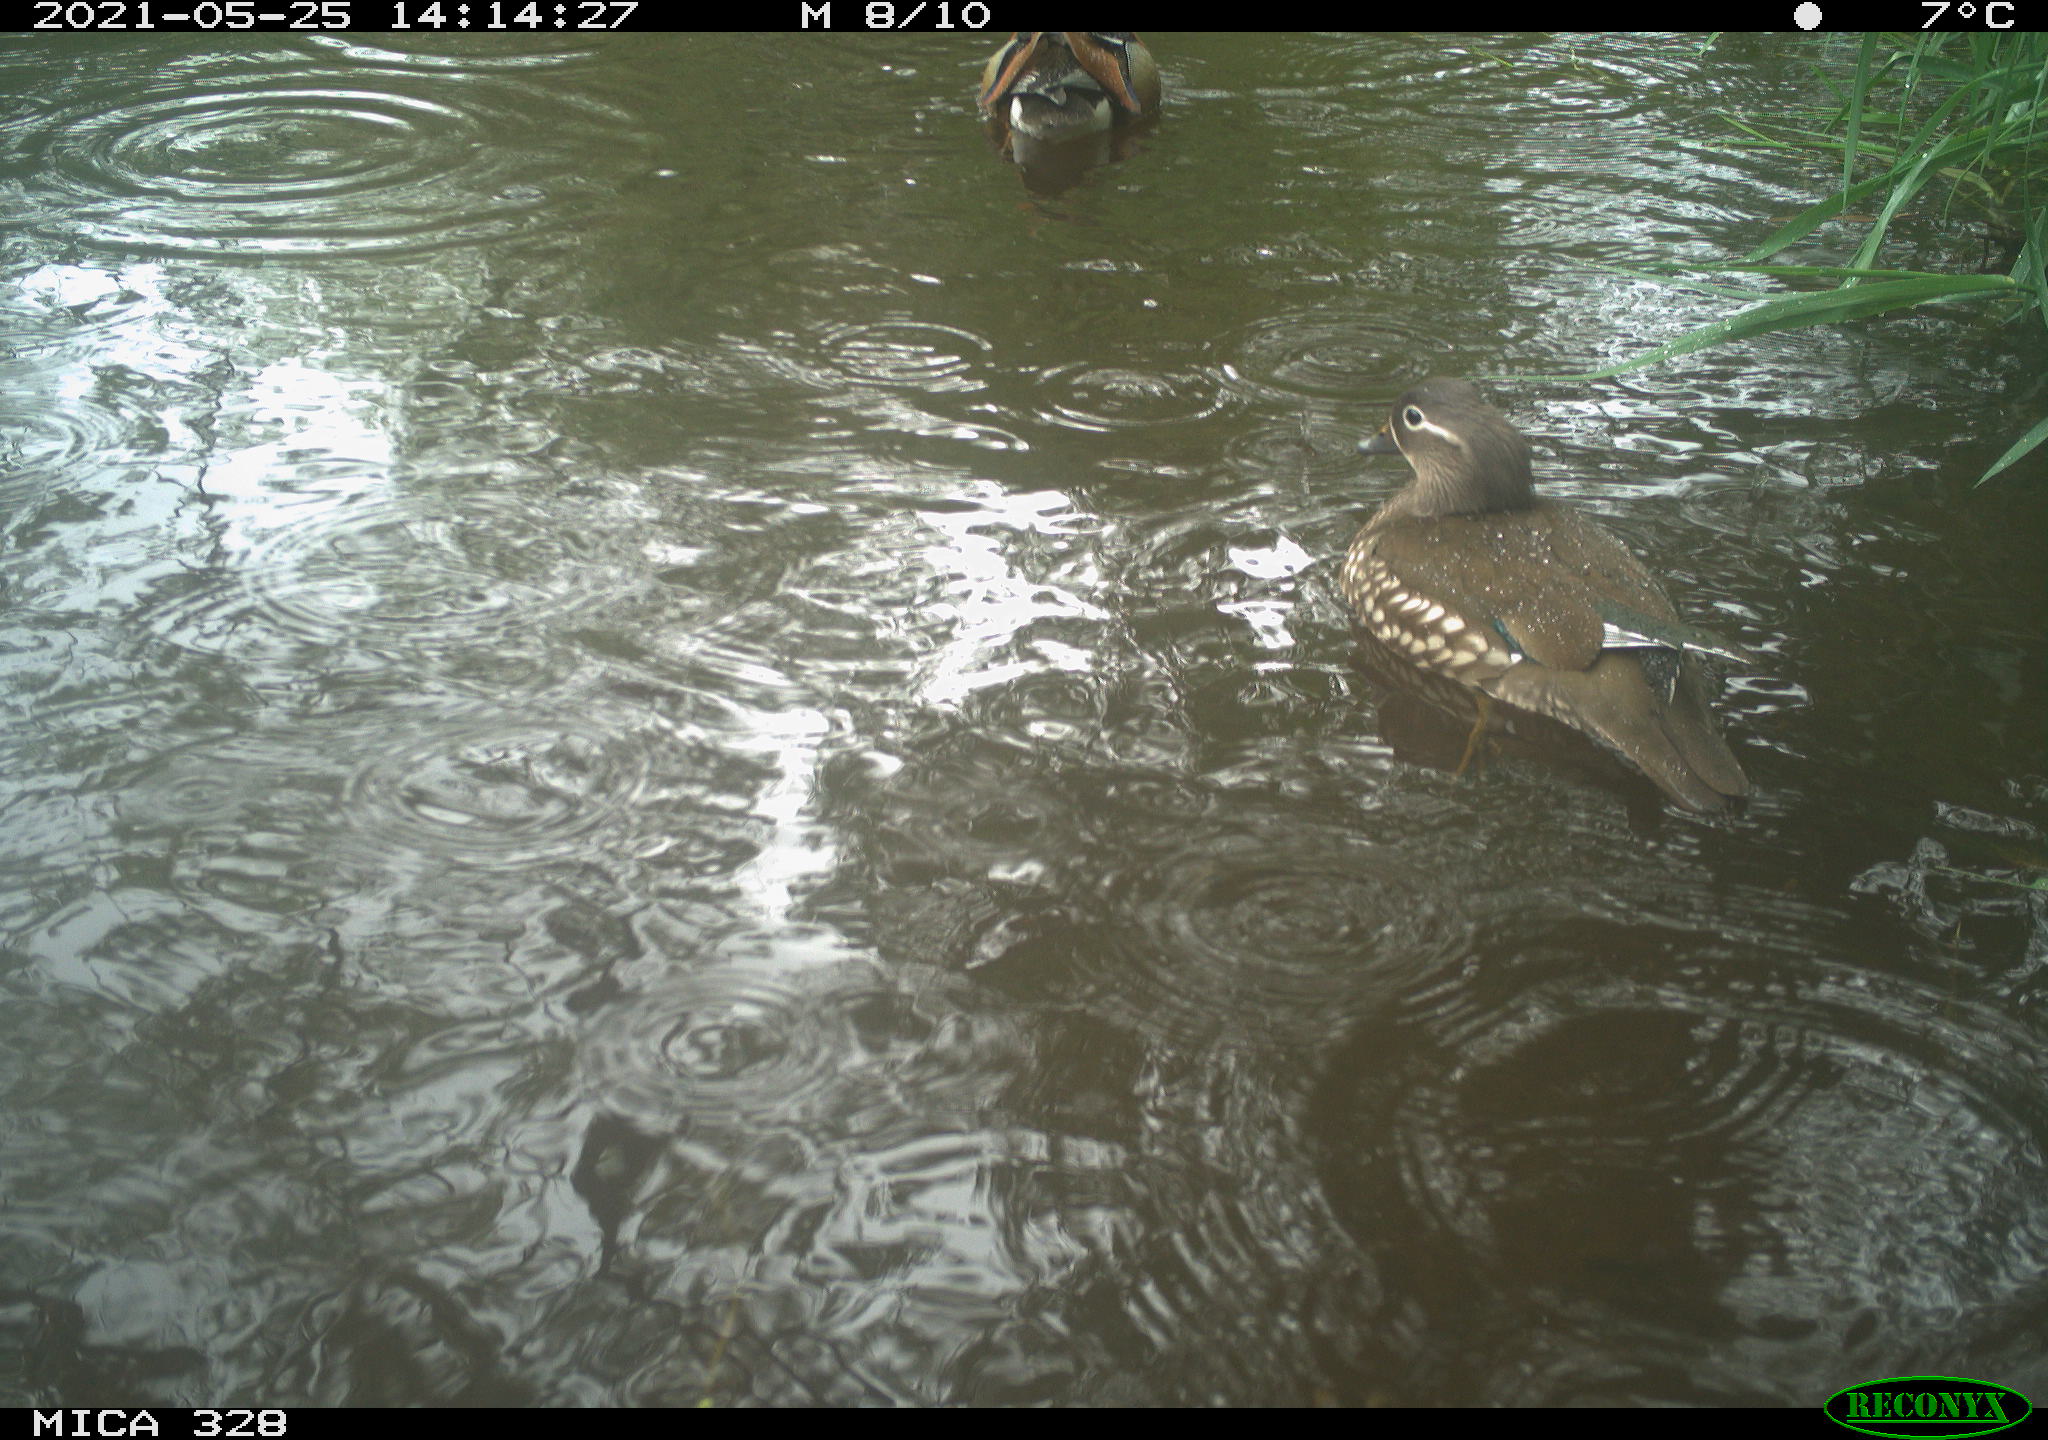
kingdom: Animalia
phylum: Chordata
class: Aves
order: Anseriformes
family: Anatidae
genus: Aix
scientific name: Aix galericulata
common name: Mandarin duck
